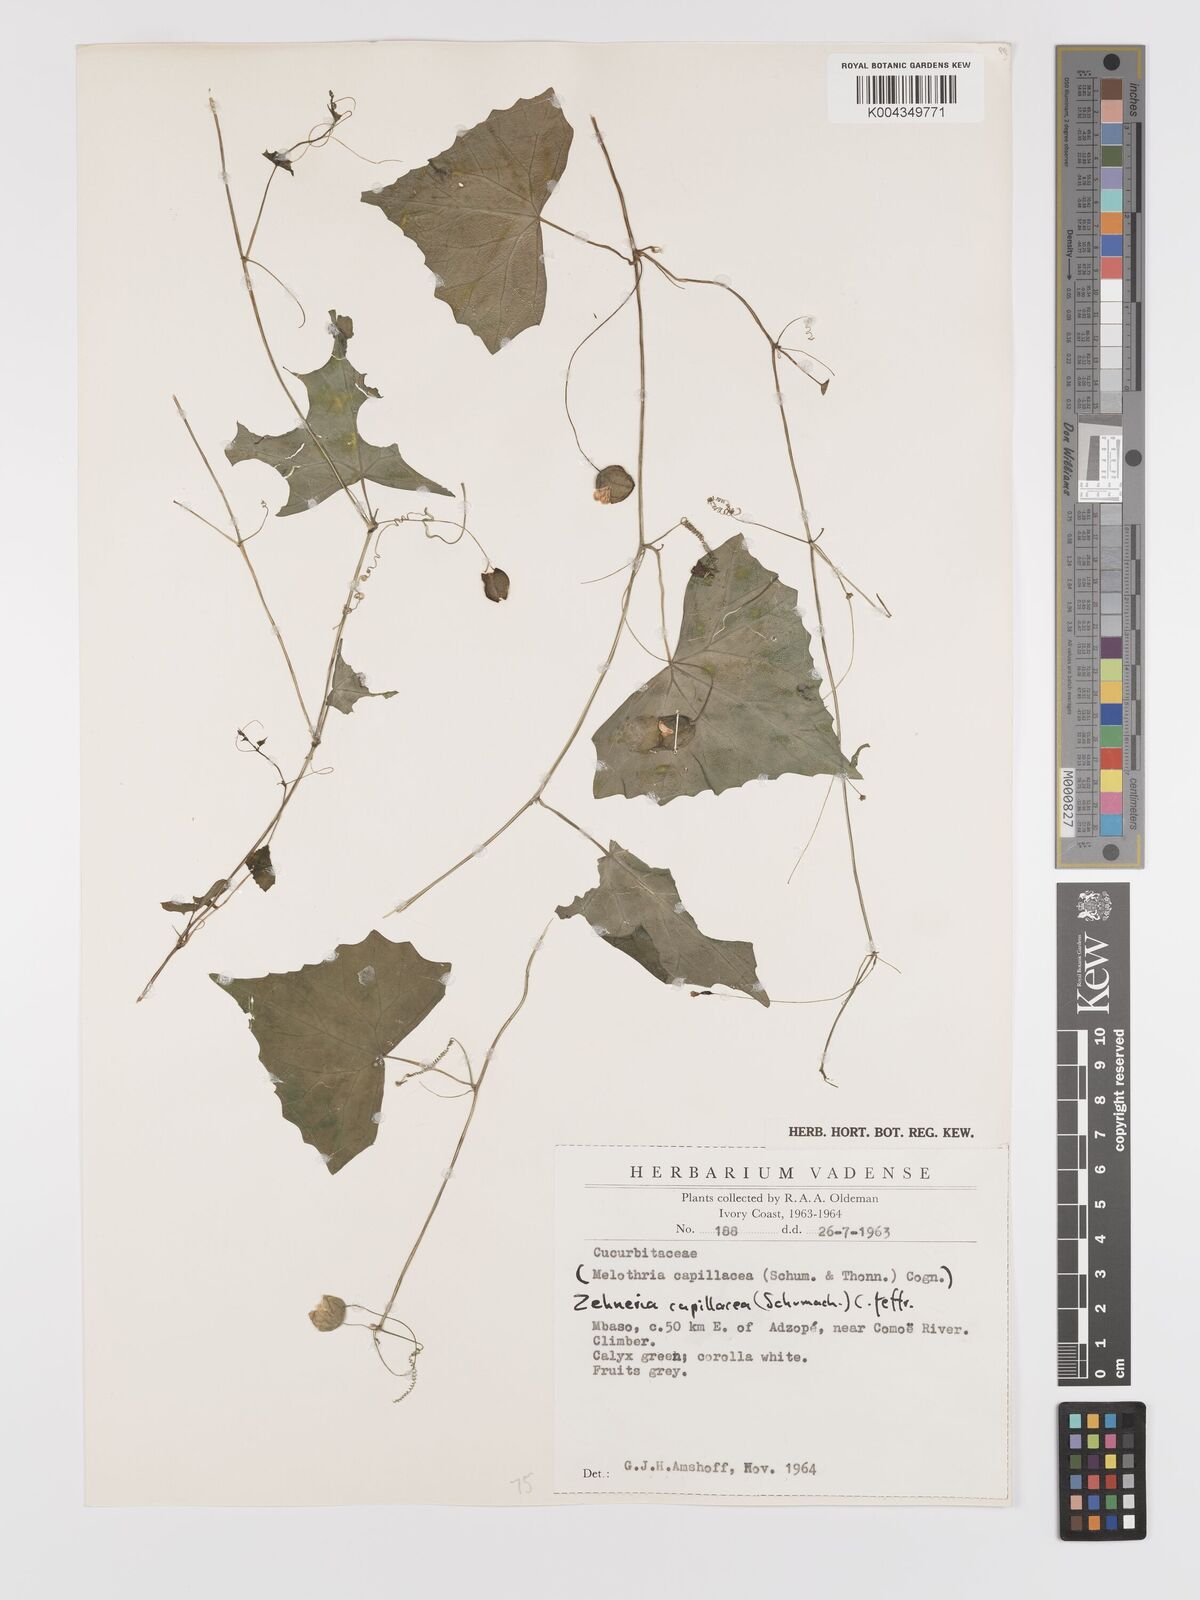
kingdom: Plantae
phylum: Tracheophyta
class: Magnoliopsida
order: Cucurbitales
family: Cucurbitaceae
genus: Zehneria
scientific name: Zehneria capillacea
